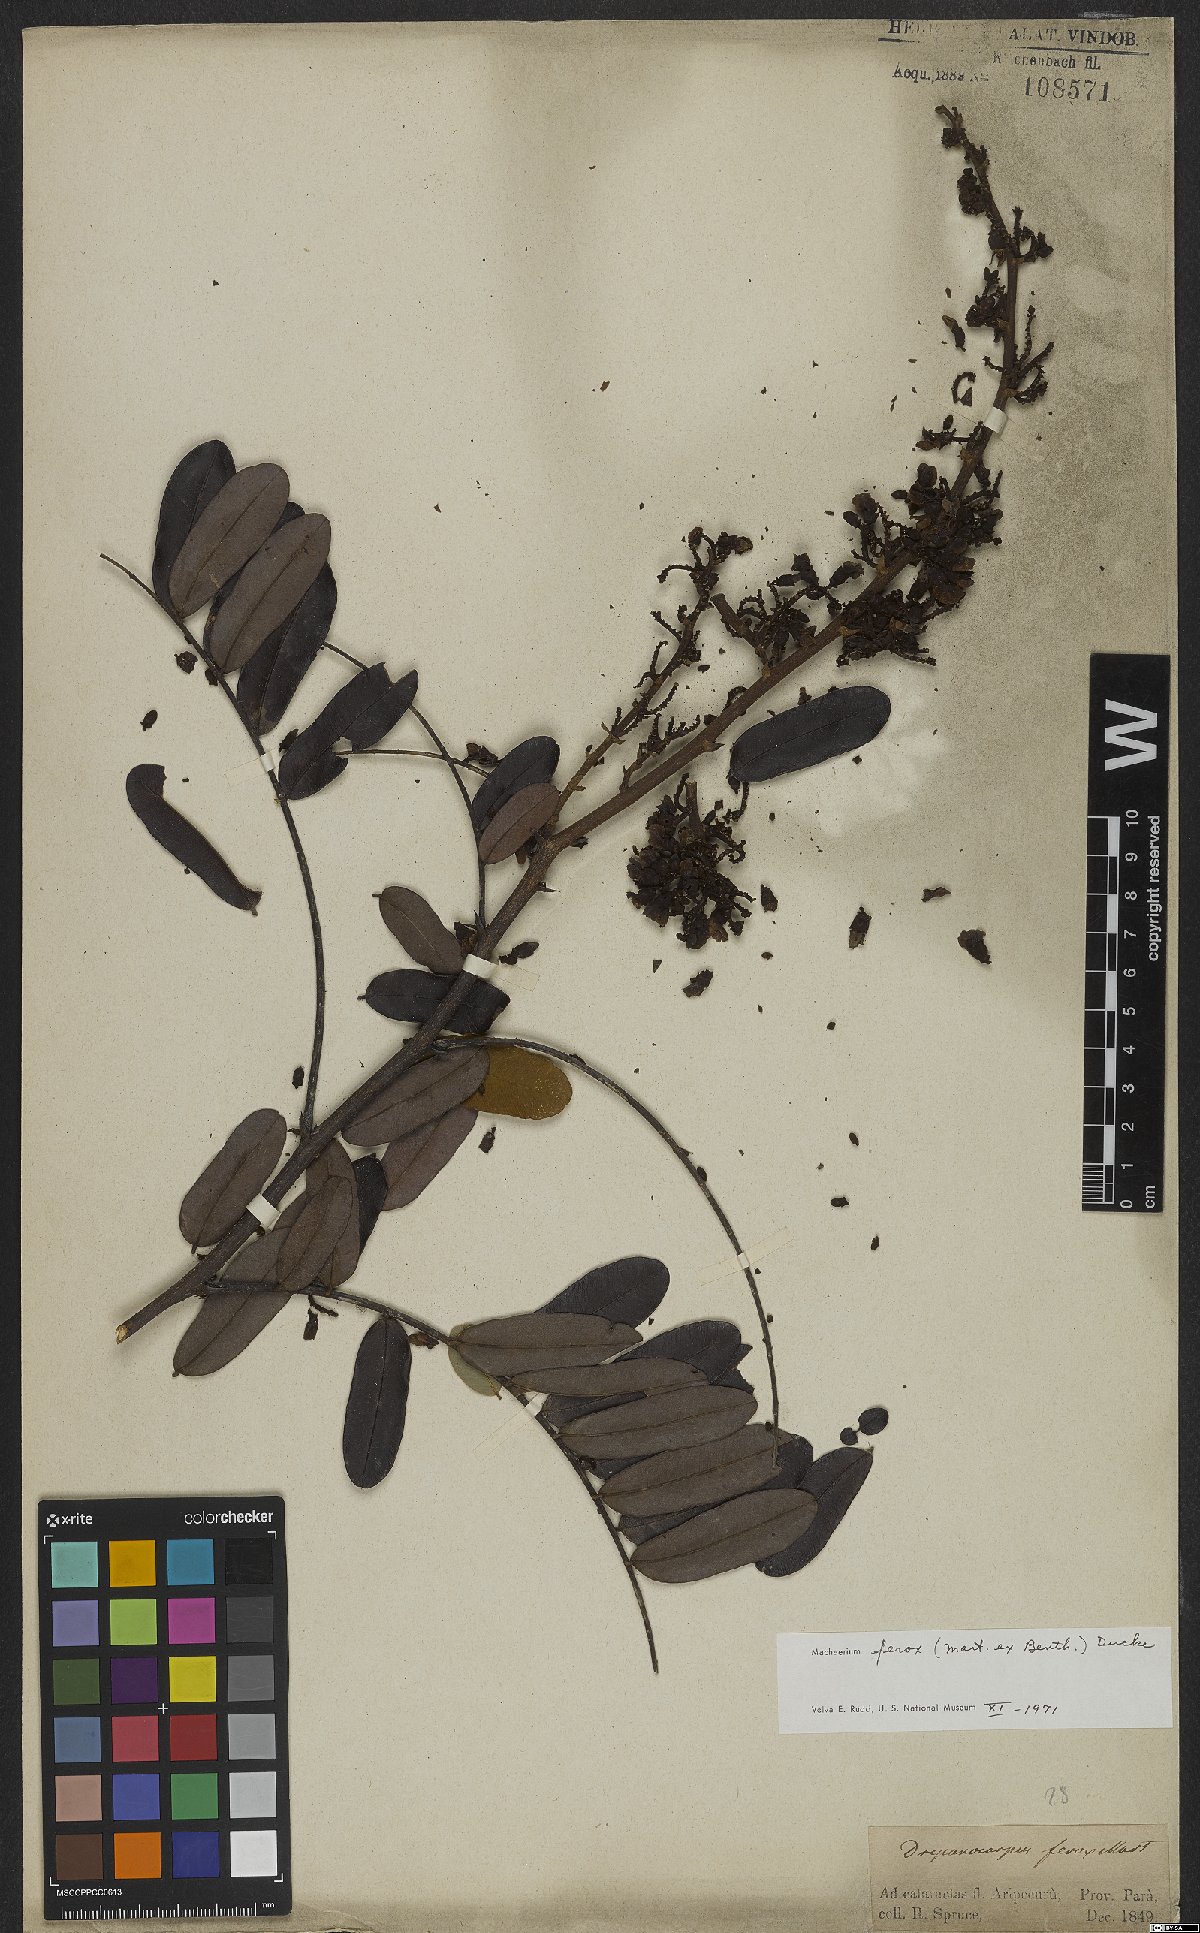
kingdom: Plantae
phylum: Tracheophyta
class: Magnoliopsida
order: Fabales
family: Fabaceae
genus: Machaerium
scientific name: Machaerium ferox
